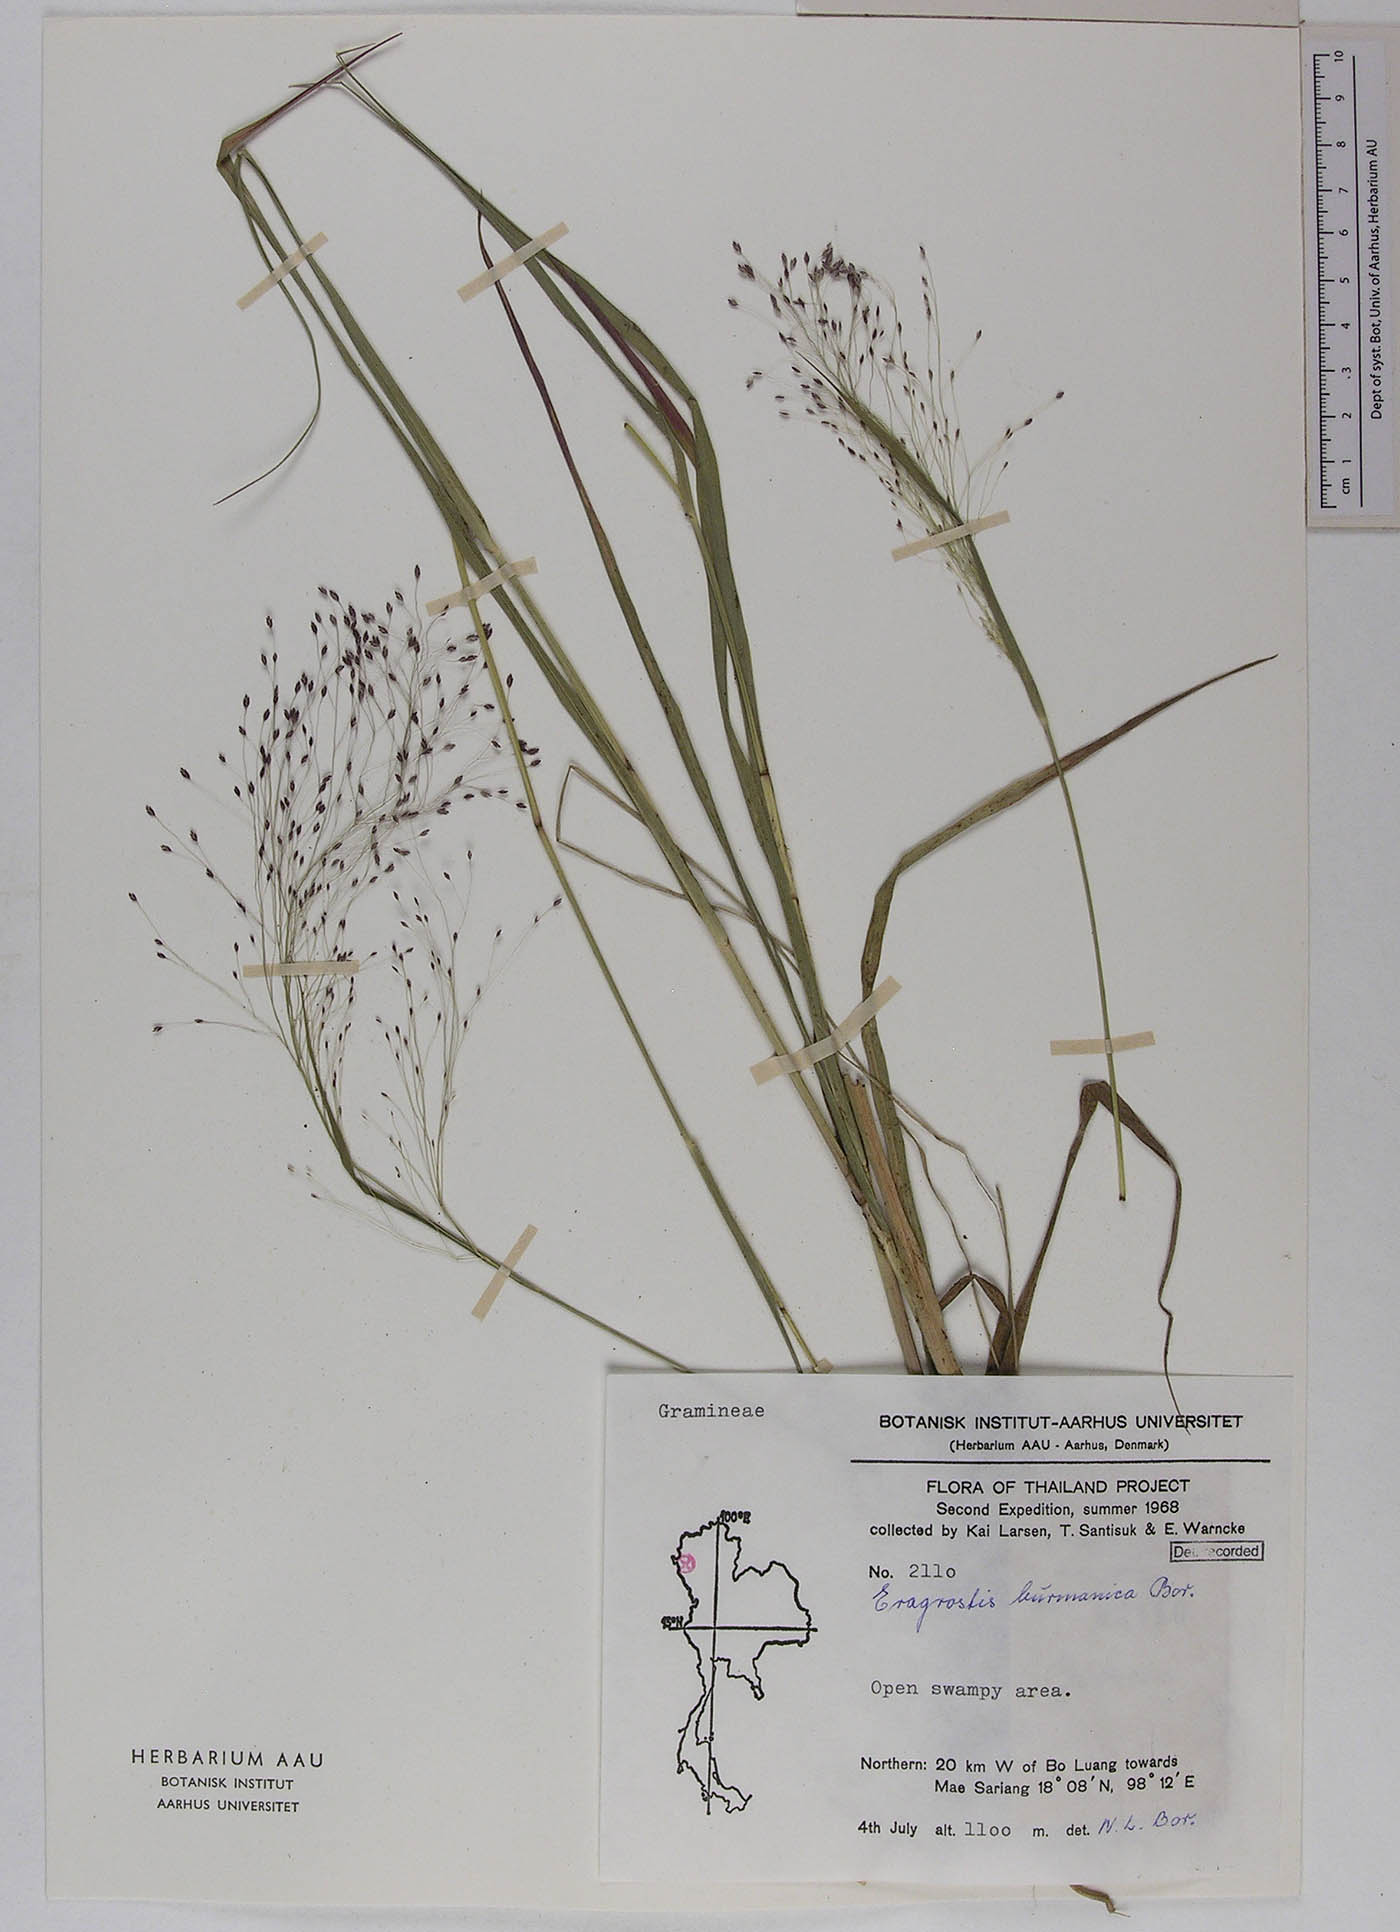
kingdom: Plantae
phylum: Tracheophyta
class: Liliopsida
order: Poales
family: Poaceae
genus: Eragrostis
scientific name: Eragrostis burmanica
